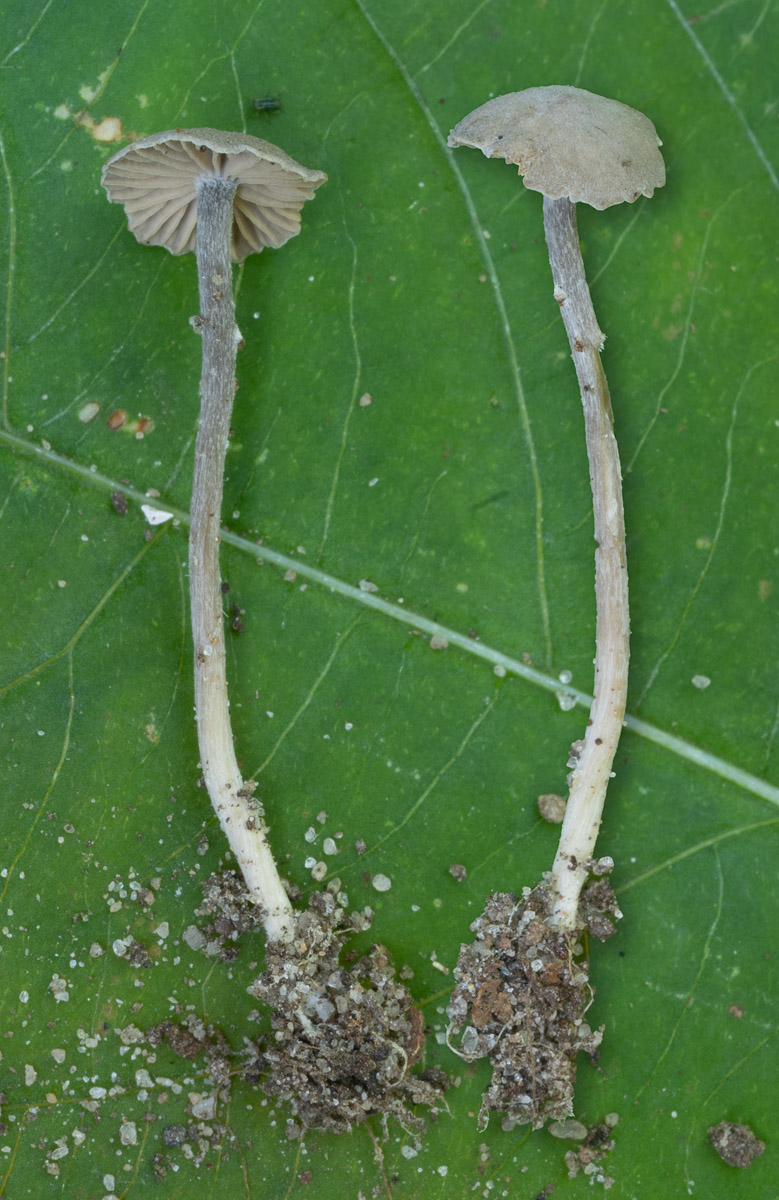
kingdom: Fungi
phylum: Basidiomycota
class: Agaricomycetes
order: Agaricales
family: Lyophyllaceae
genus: Sagaranella
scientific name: Sagaranella
